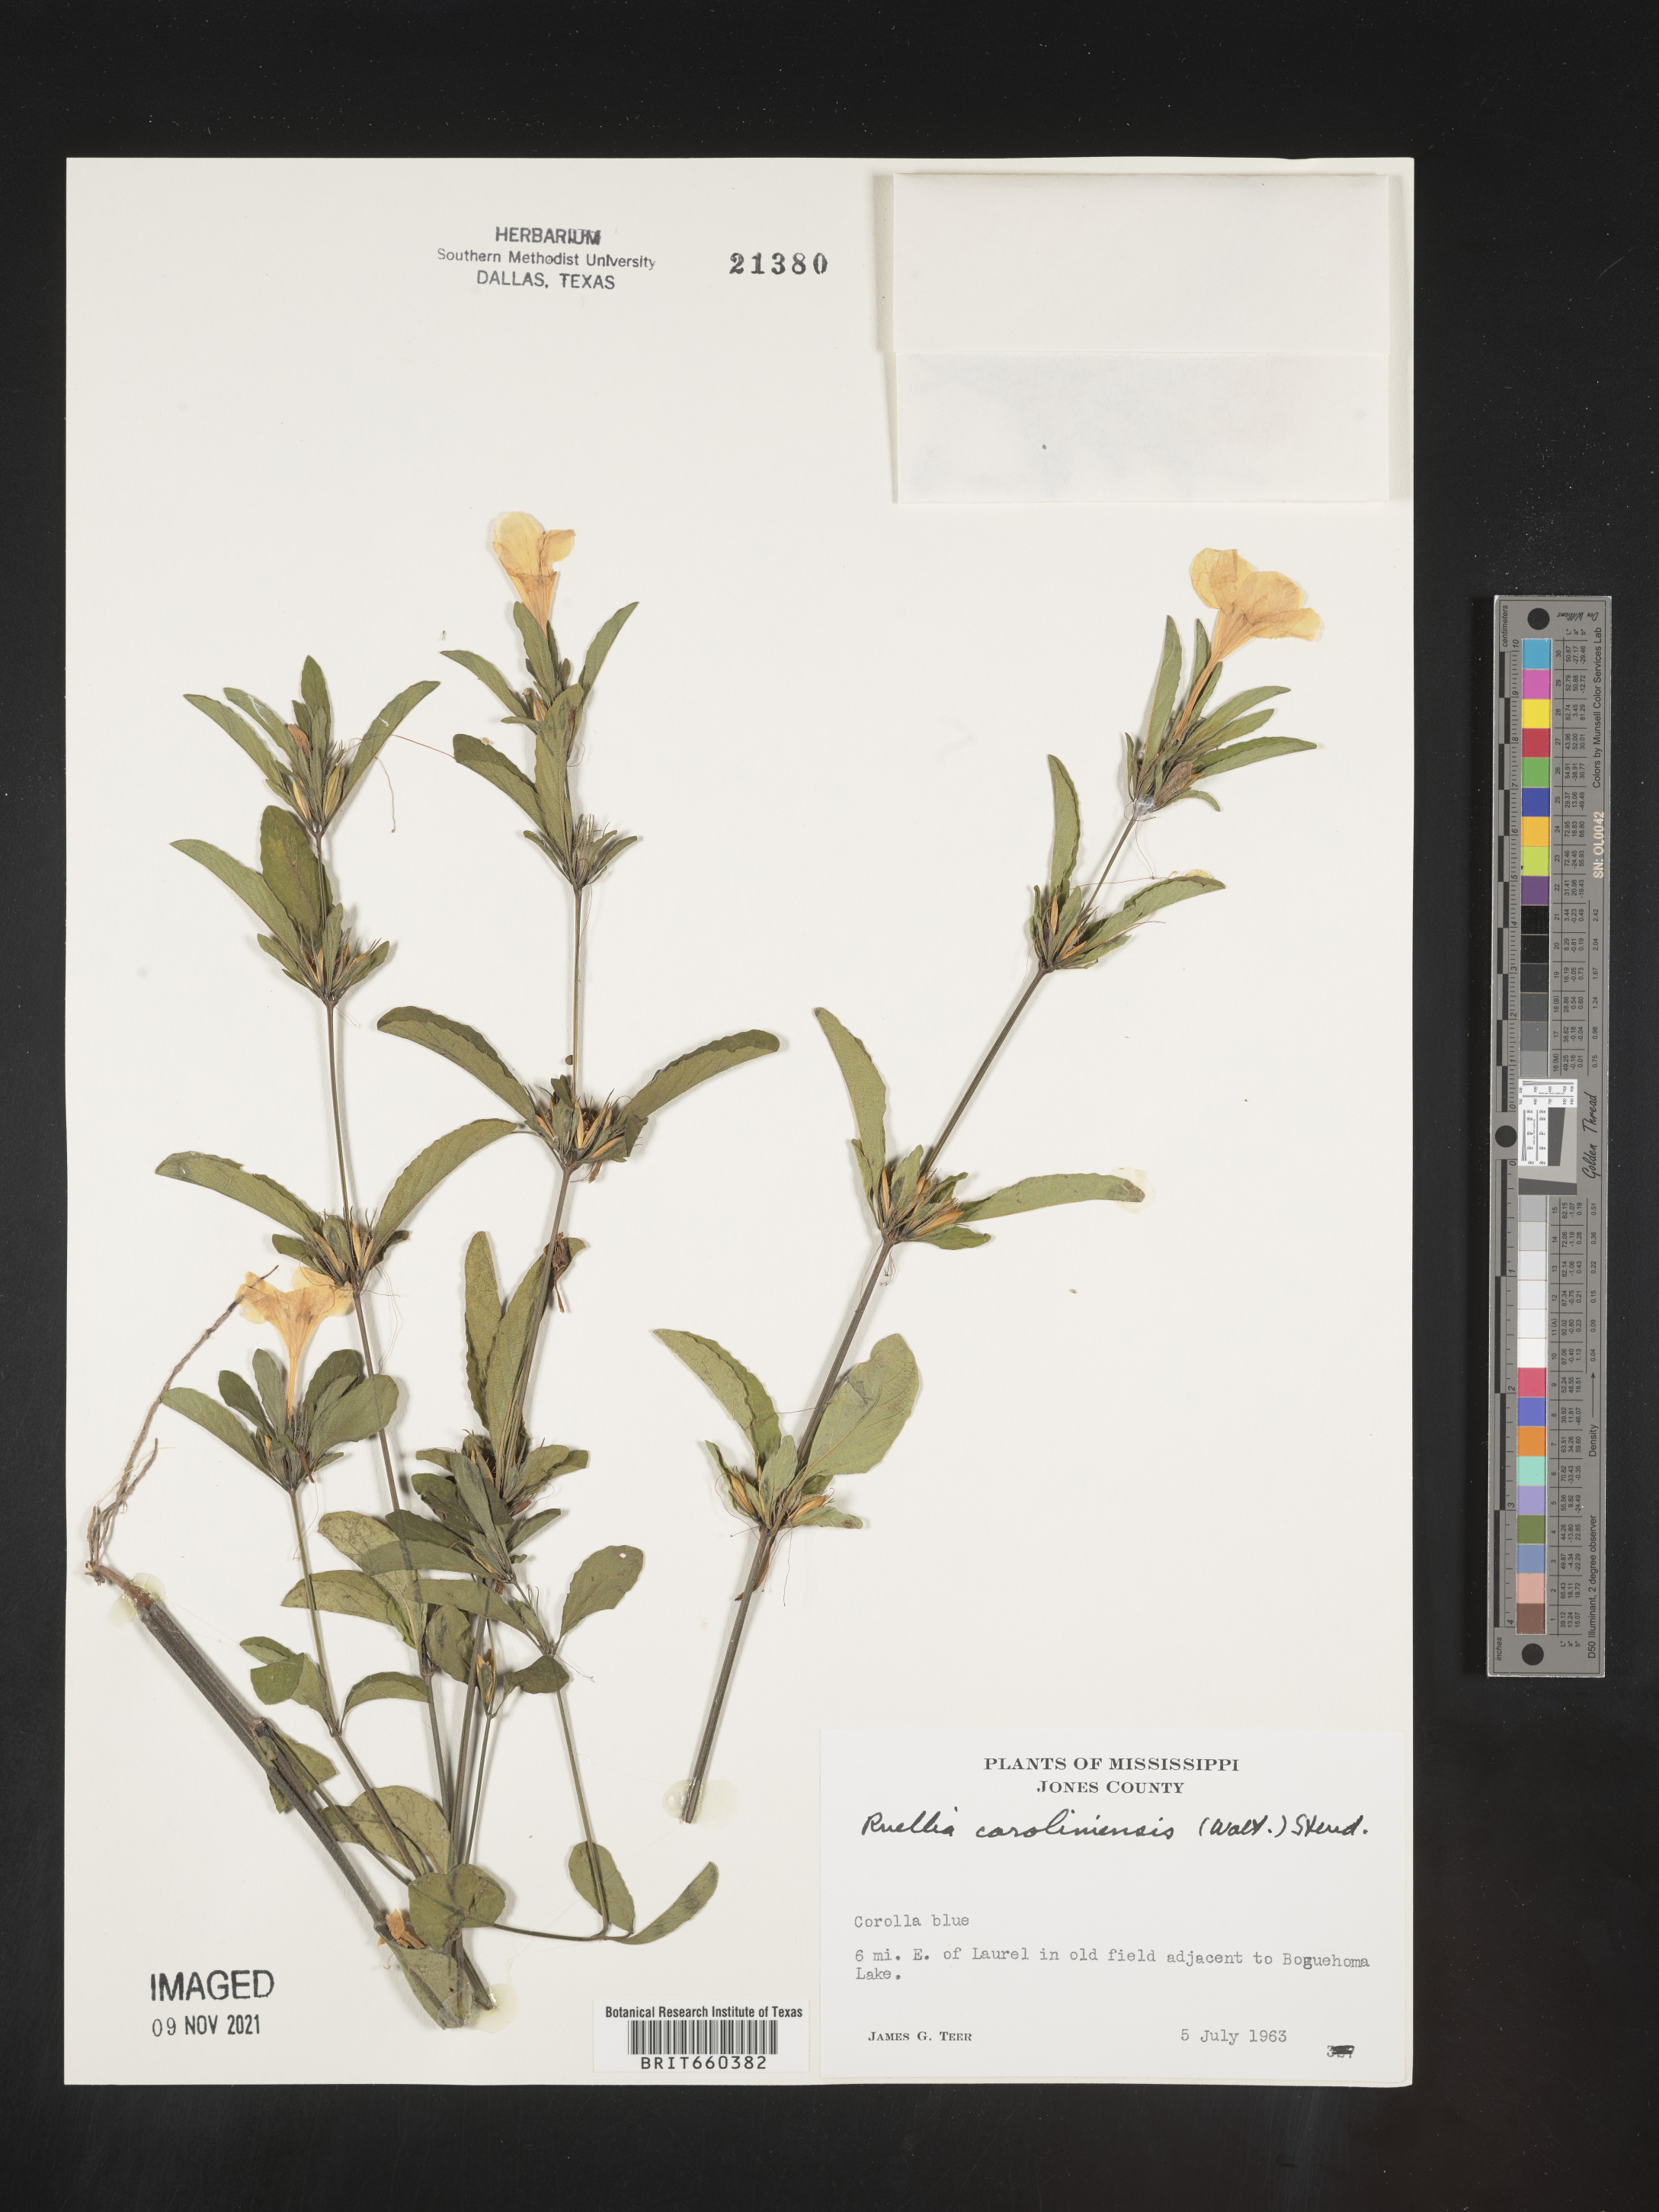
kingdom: Plantae
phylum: Tracheophyta
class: Magnoliopsida
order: Lamiales
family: Acanthaceae
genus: Ruellia
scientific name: Ruellia caroliniensis
